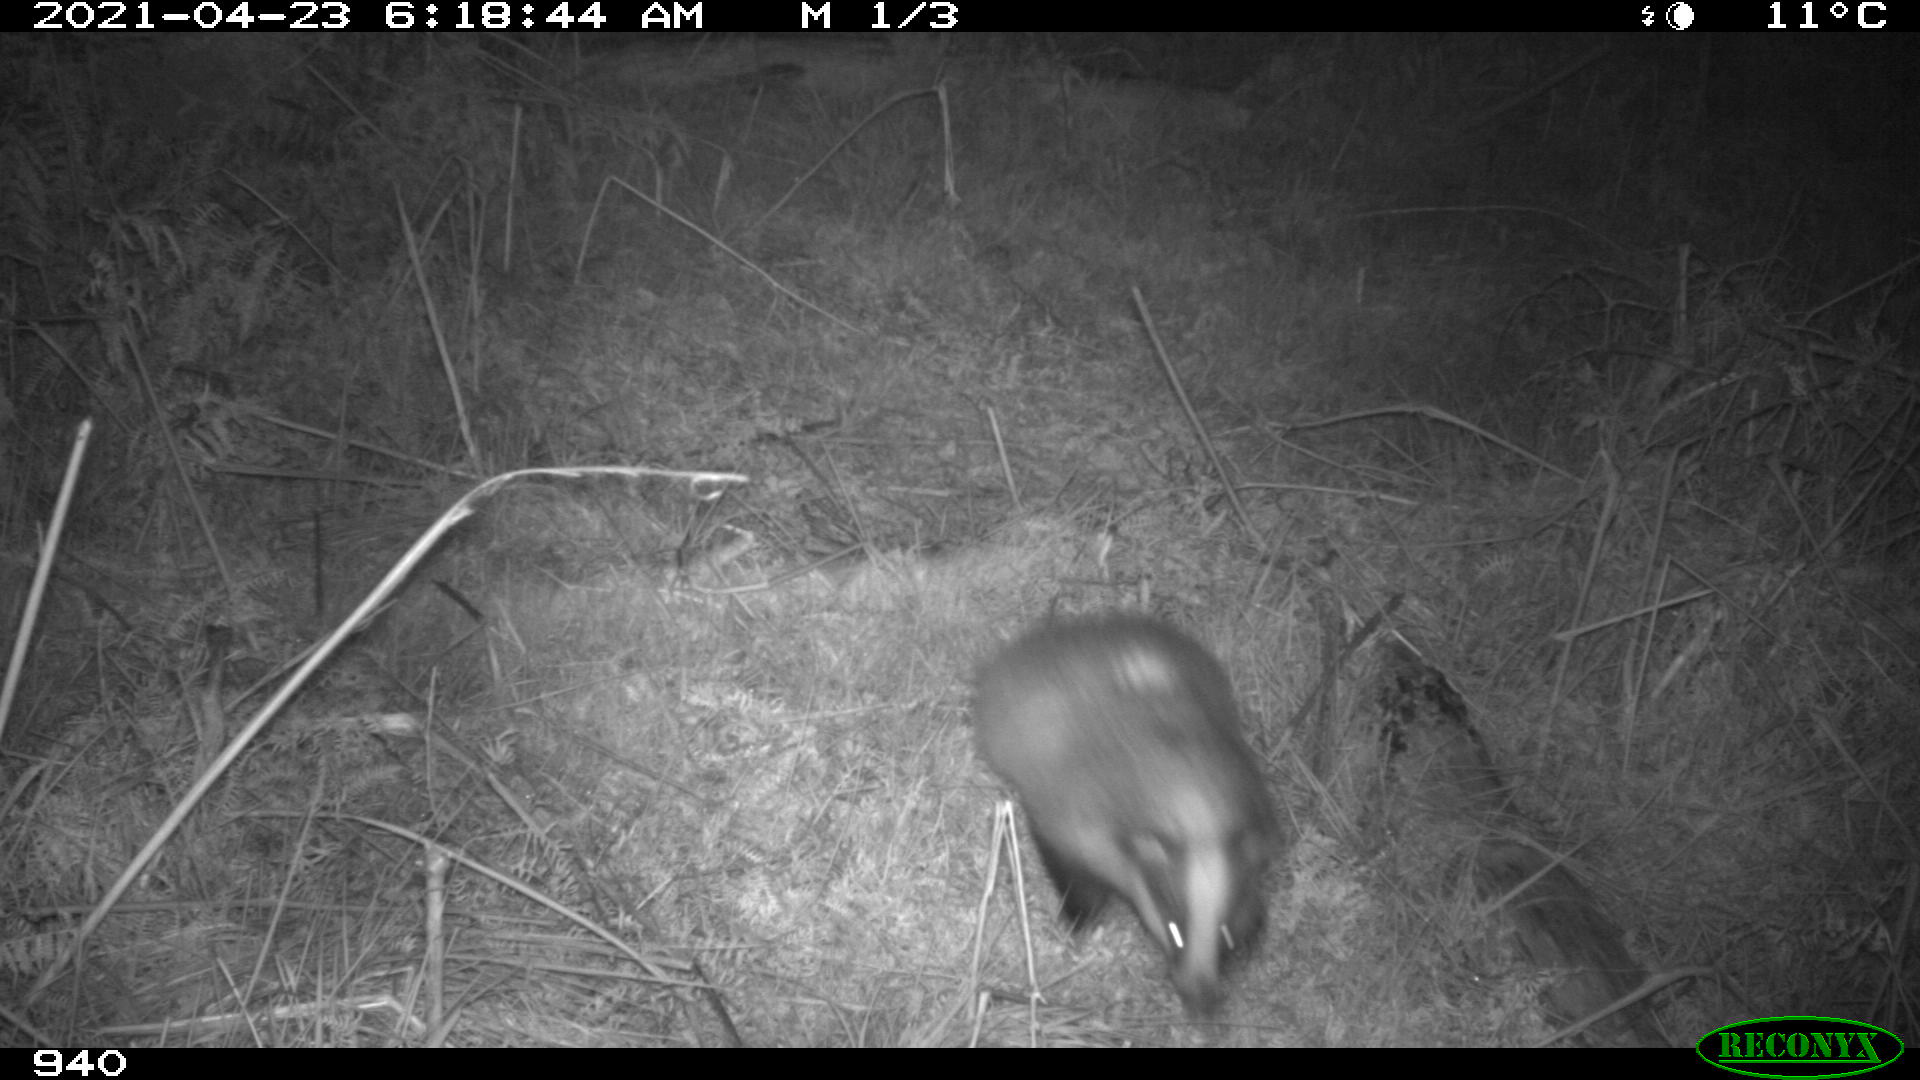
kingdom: Animalia
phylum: Chordata
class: Mammalia
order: Carnivora
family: Mustelidae
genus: Meles
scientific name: Meles meles
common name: Eurasian badger
